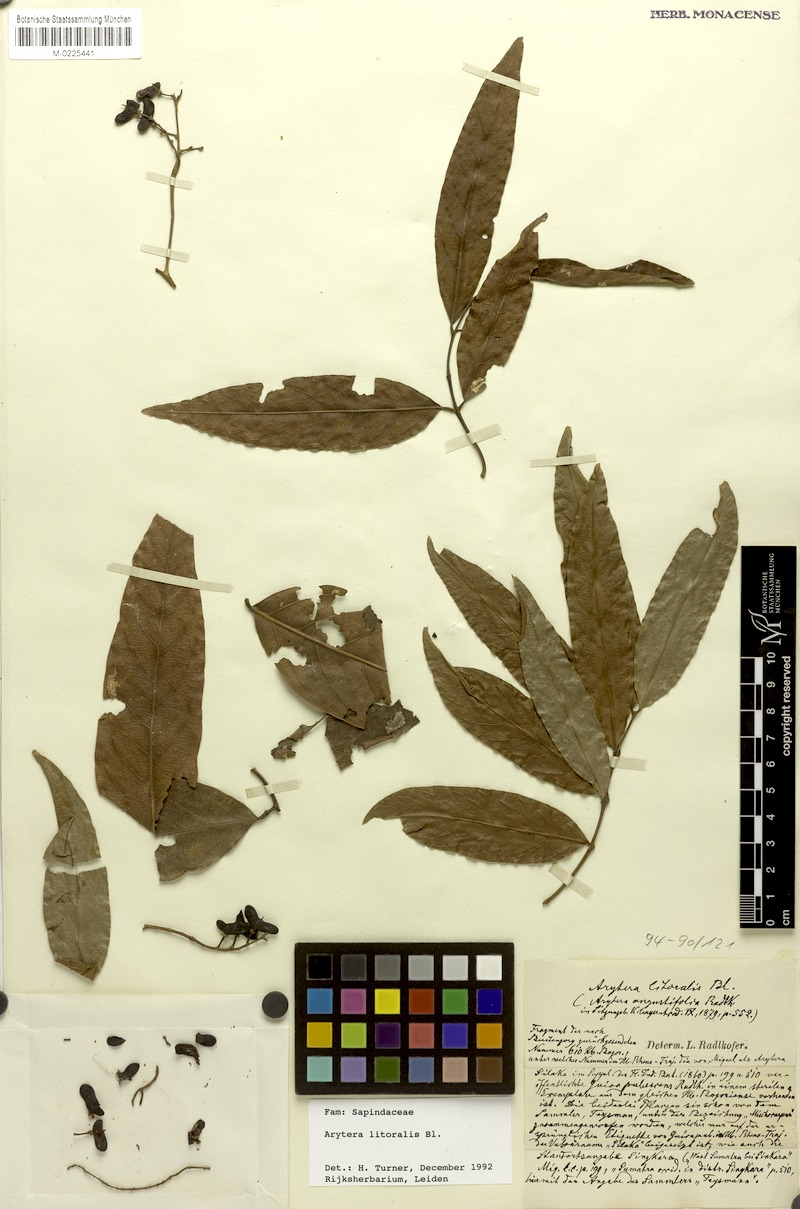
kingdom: Plantae
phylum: Tracheophyta
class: Magnoliopsida
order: Sapindales
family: Sapindaceae
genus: Arytera
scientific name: Arytera litoralis
